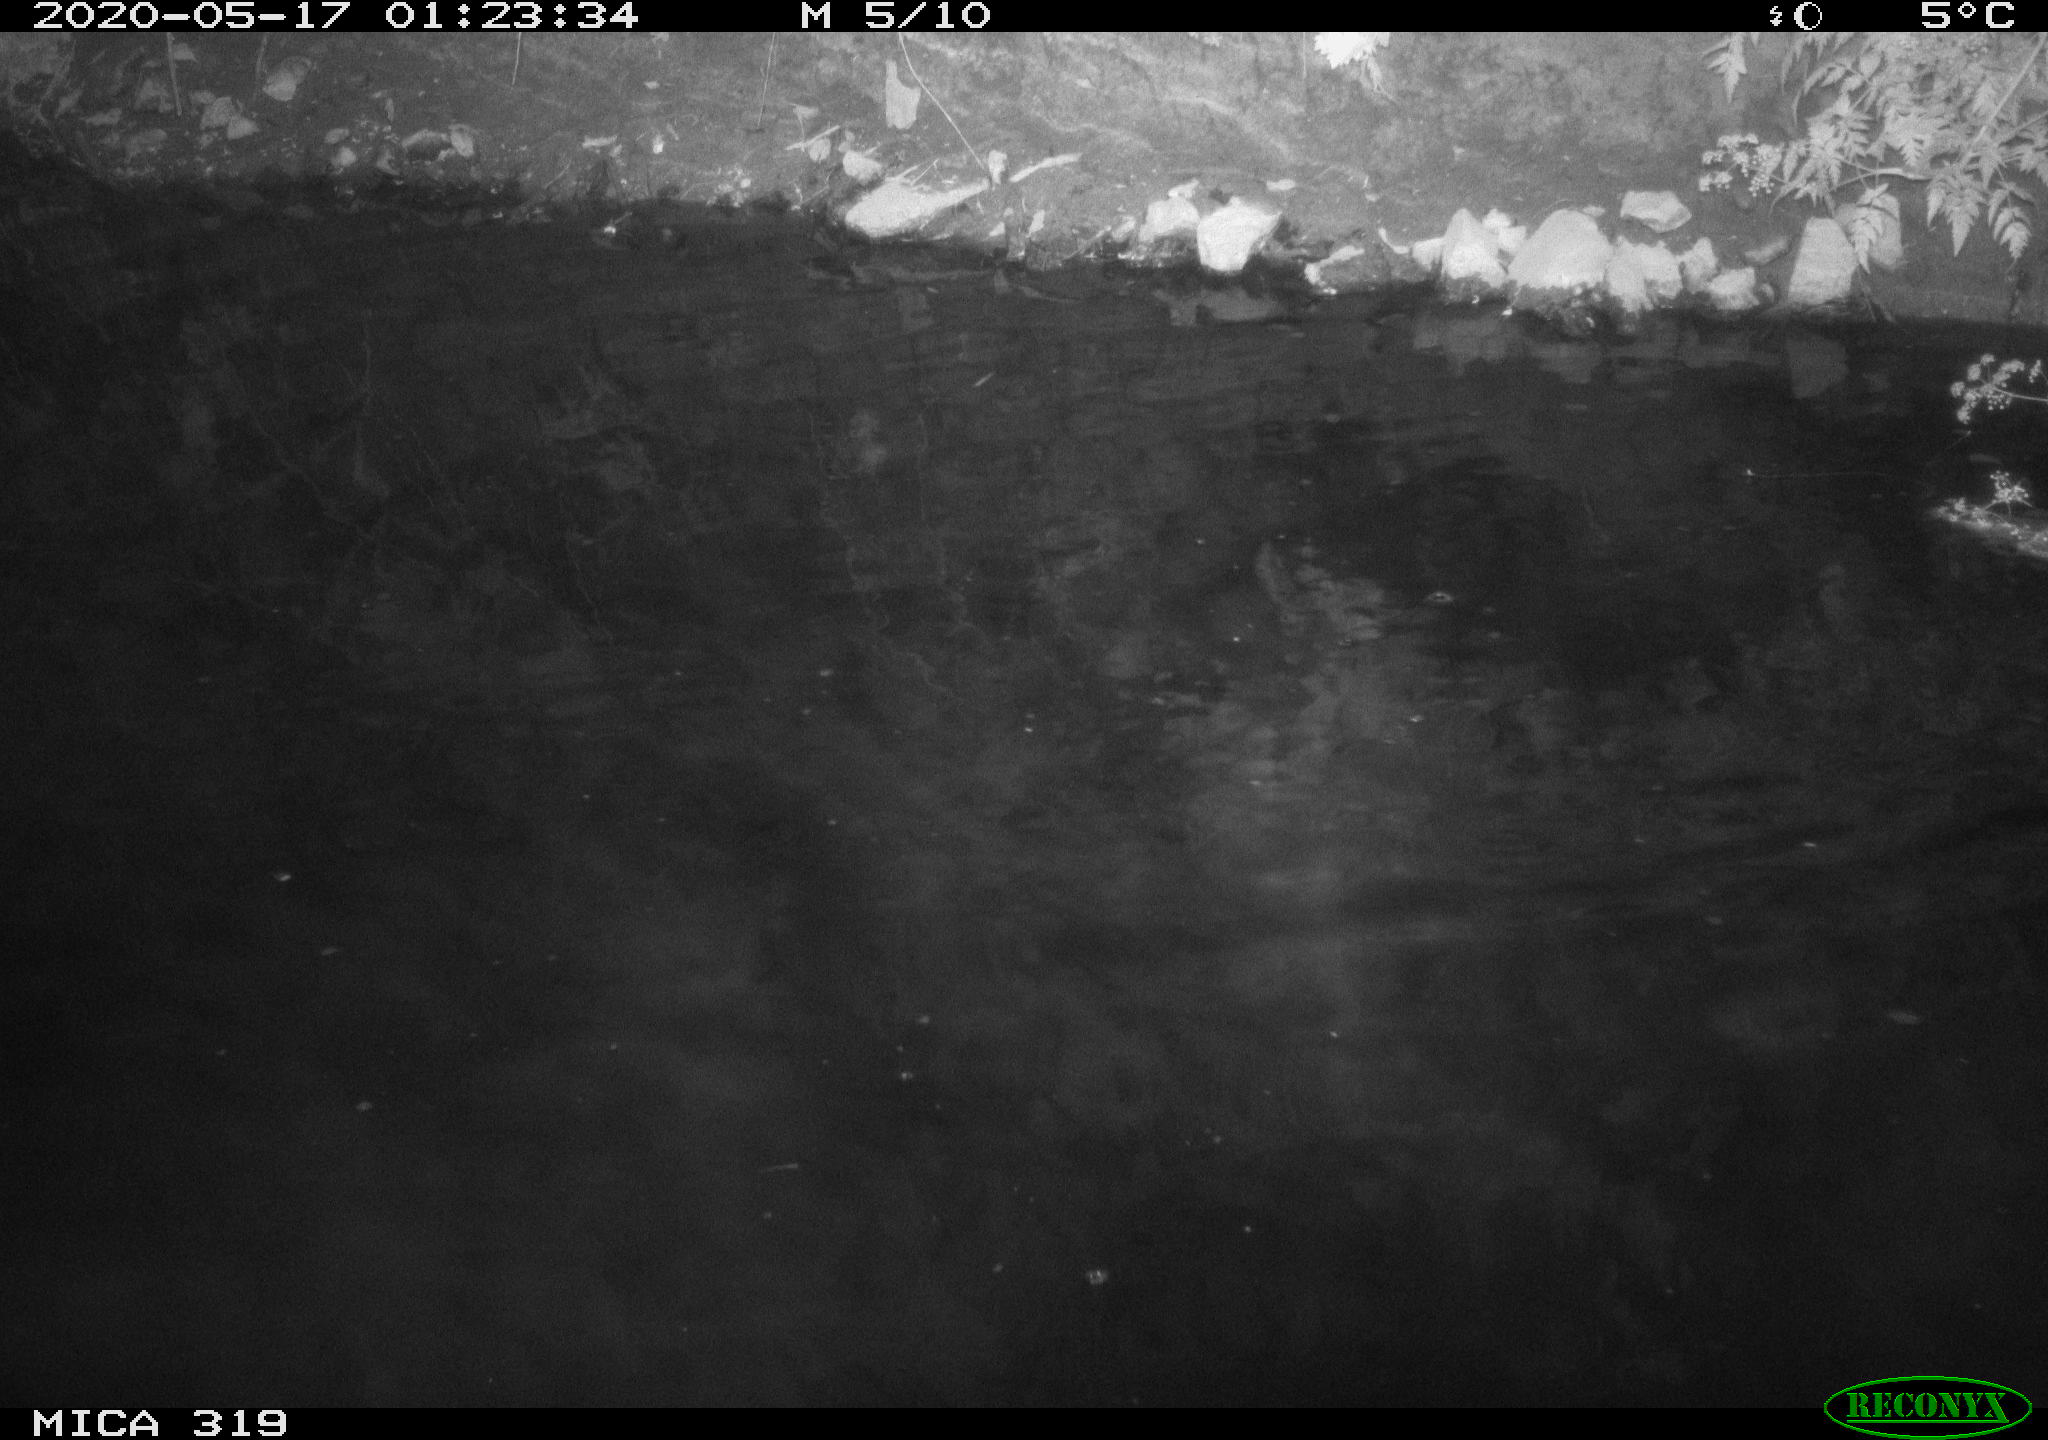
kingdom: Animalia
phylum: Chordata
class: Aves
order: Anseriformes
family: Anatidae
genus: Anas
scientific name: Anas platyrhynchos
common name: Mallard
